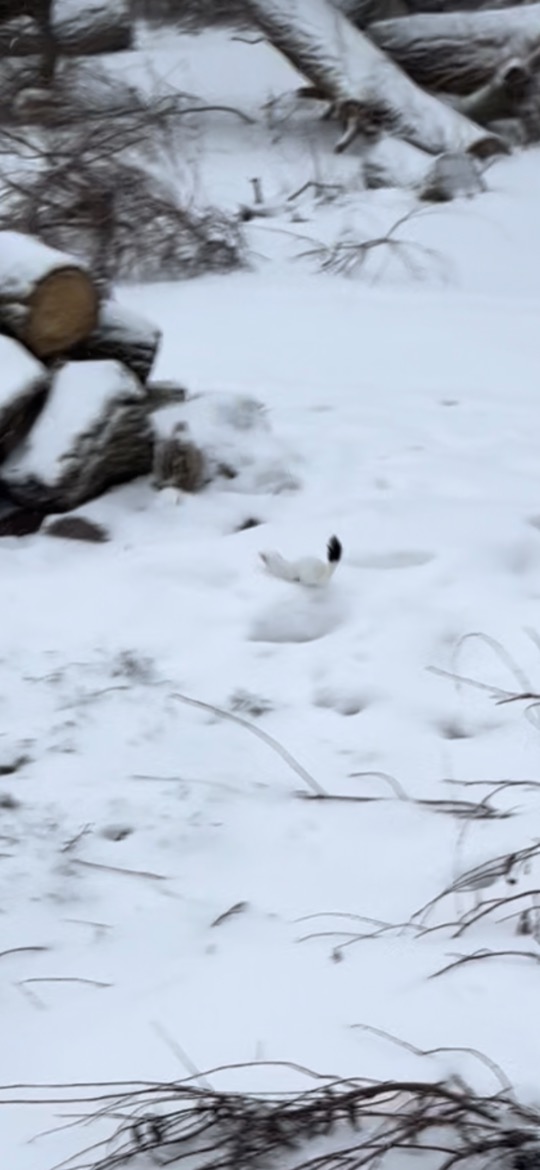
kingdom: Animalia
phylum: Chordata
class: Mammalia
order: Carnivora
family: Mustelidae
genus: Mustela
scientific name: Mustela erminea
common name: Lækat
